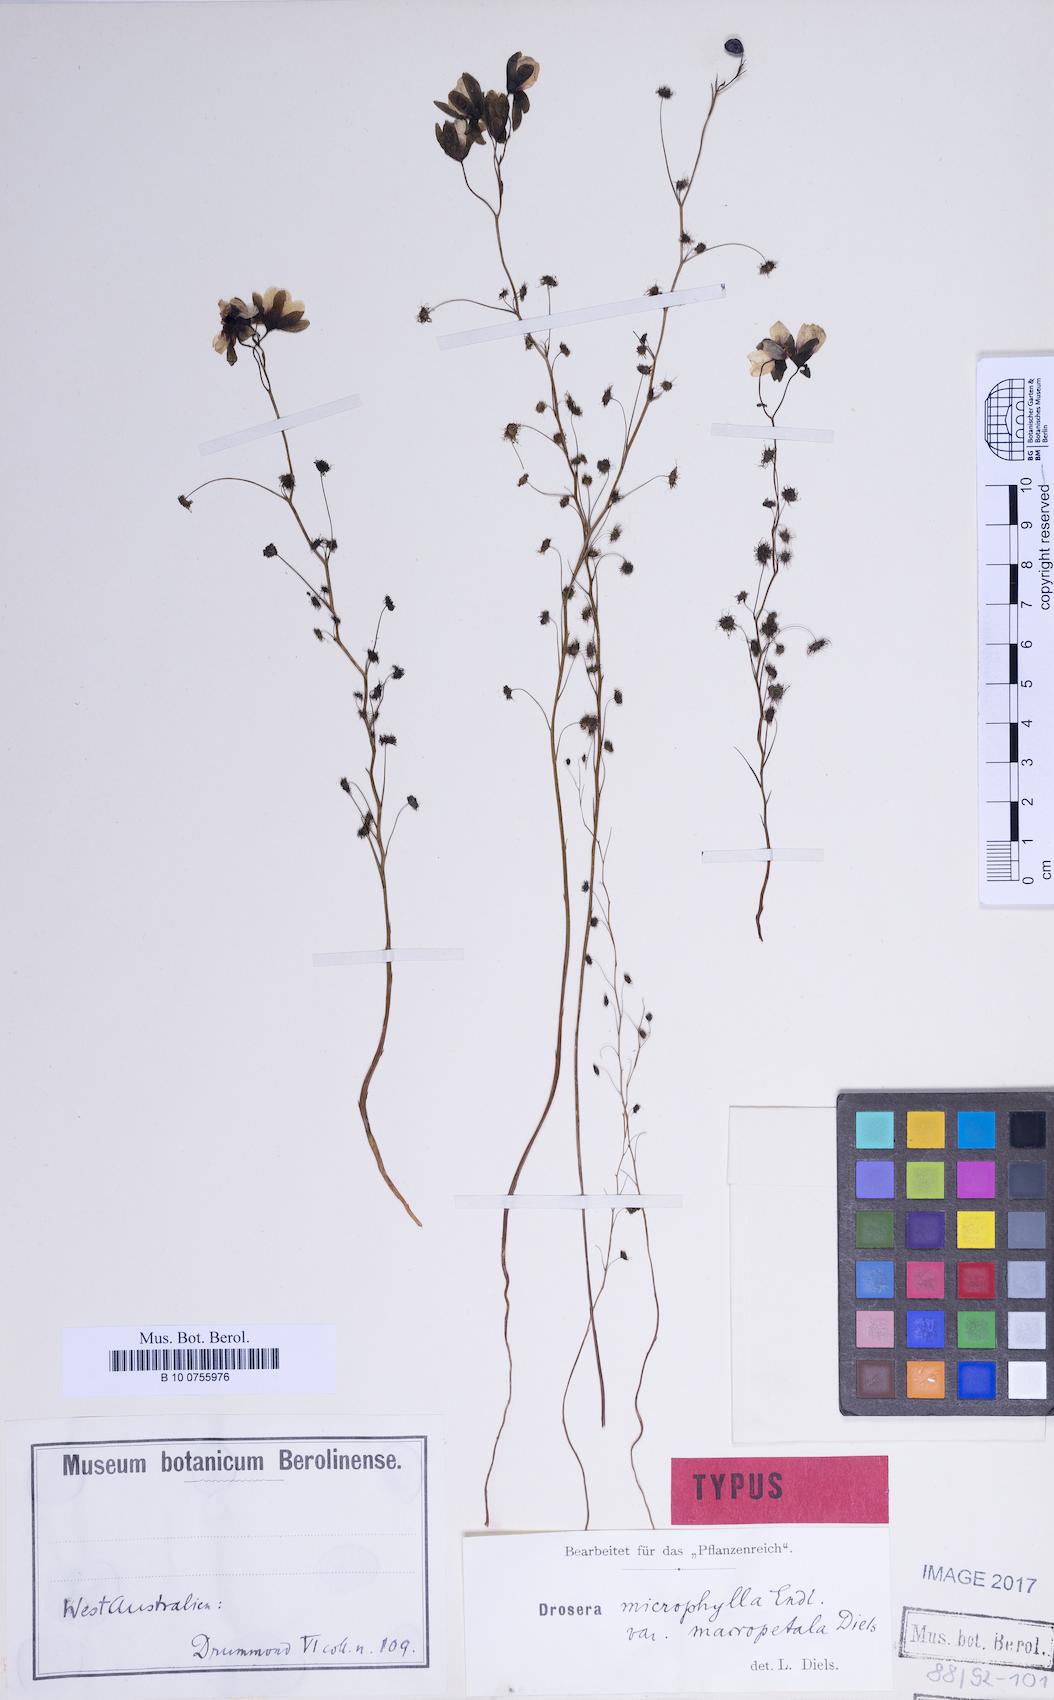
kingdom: Plantae
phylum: Tracheophyta
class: Magnoliopsida
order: Caryophyllales
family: Droseraceae
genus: Drosera
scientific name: Drosera microphylla
